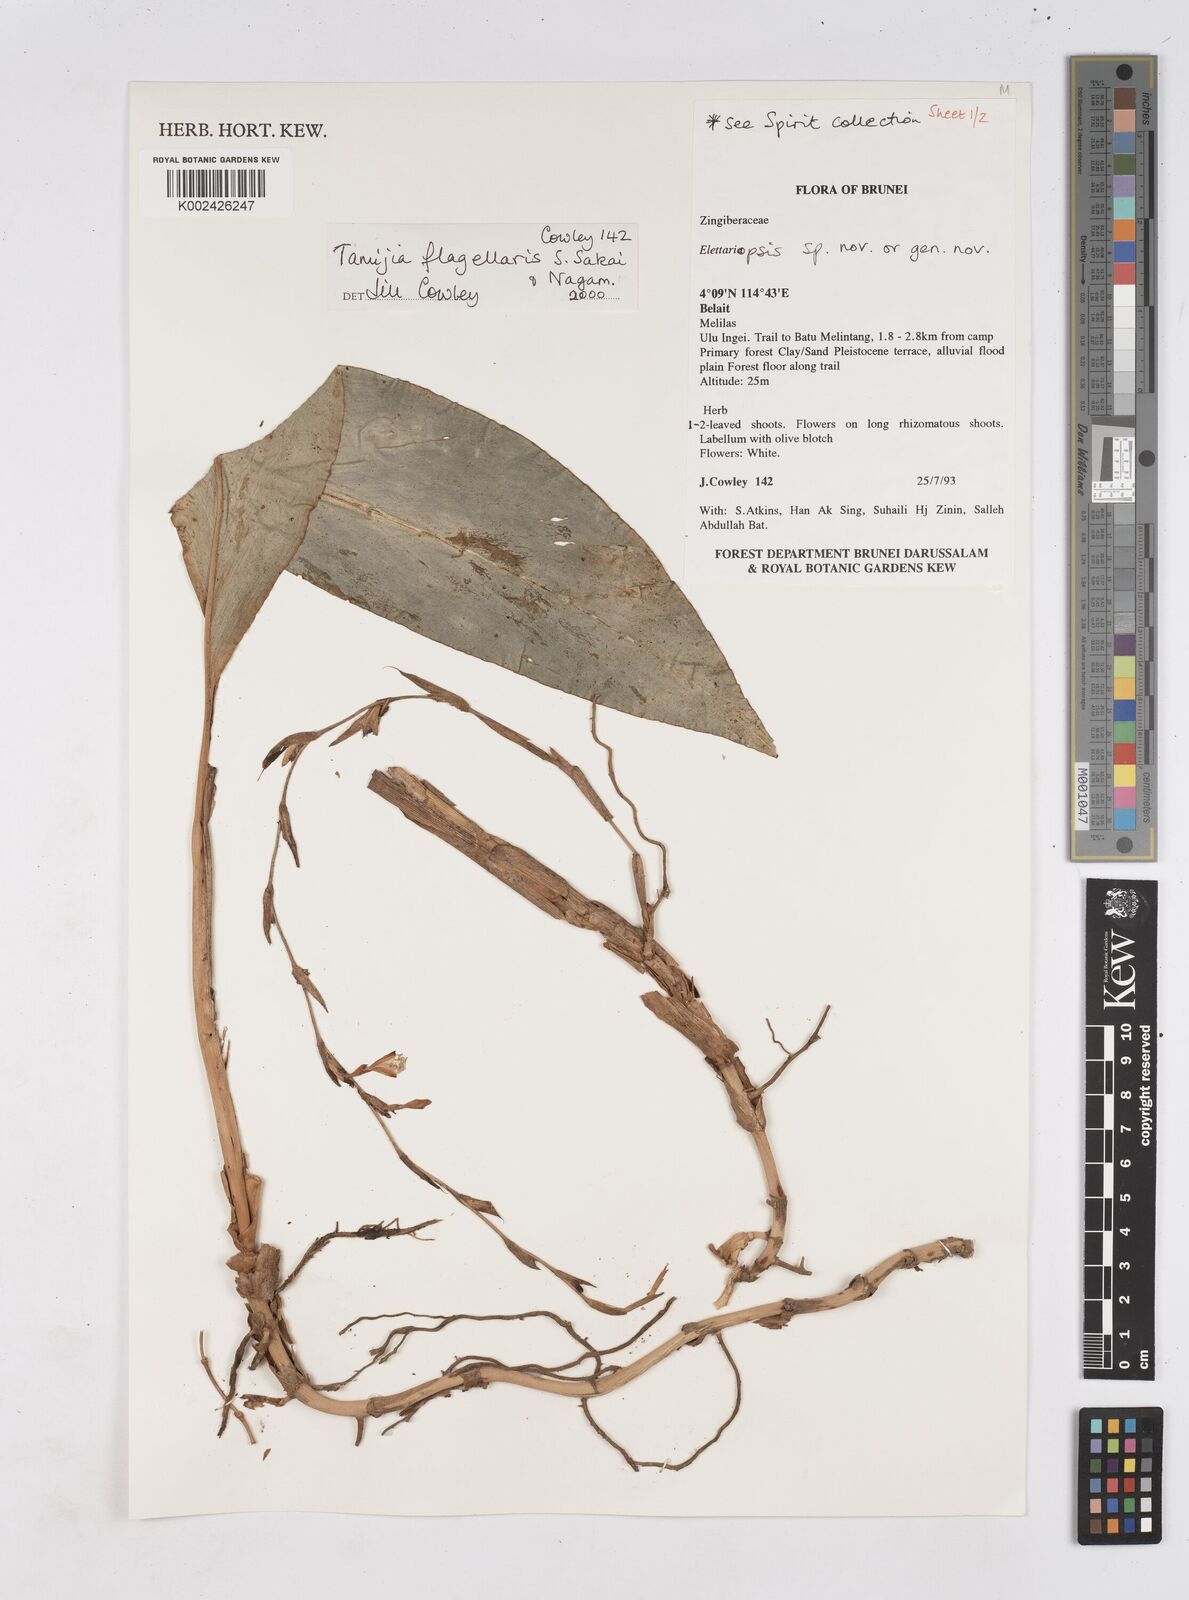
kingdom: Plantae
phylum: Tracheophyta
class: Liliopsida
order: Zingiberales
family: Zingiberaceae
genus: Tamijia
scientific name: Tamijia flagellaris
